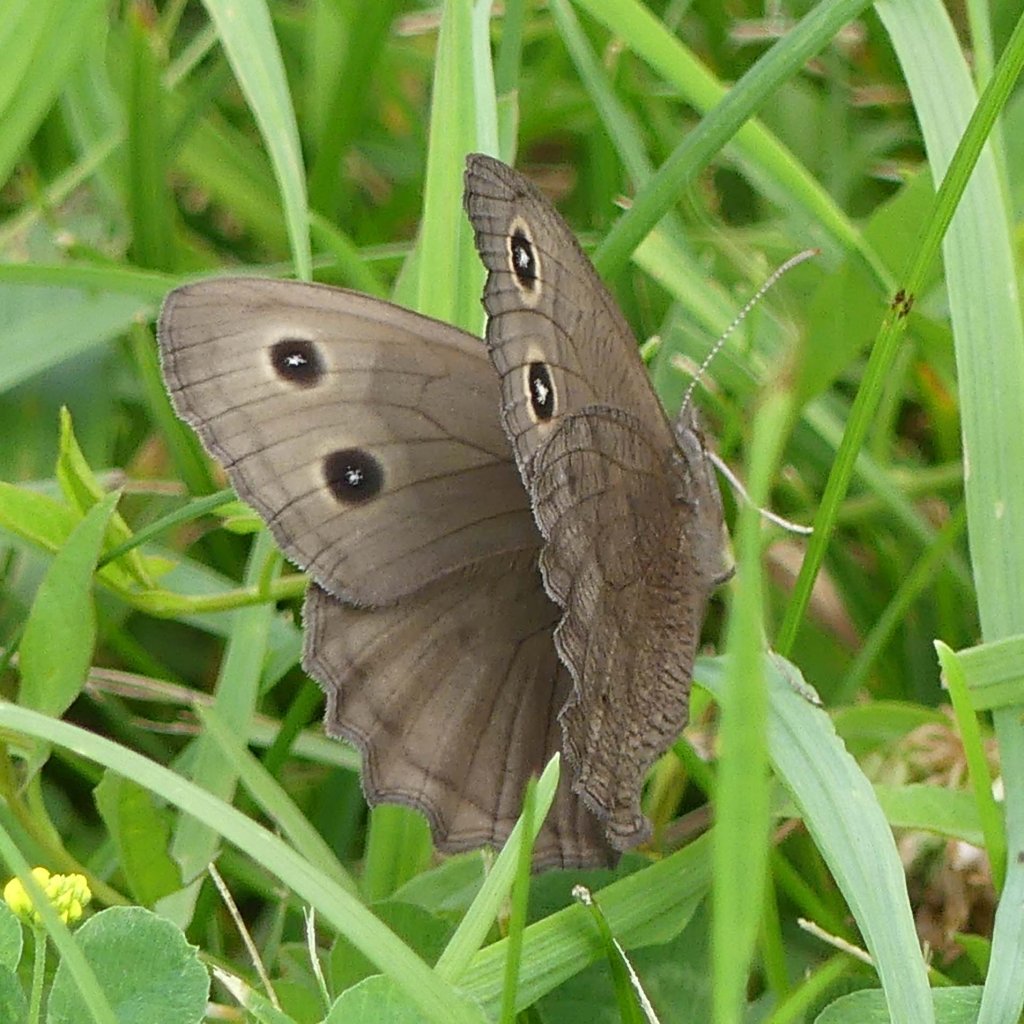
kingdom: Animalia
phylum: Arthropoda
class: Insecta
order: Lepidoptera
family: Nymphalidae
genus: Cercyonis
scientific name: Cercyonis pegala
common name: Common Wood-Nymph
